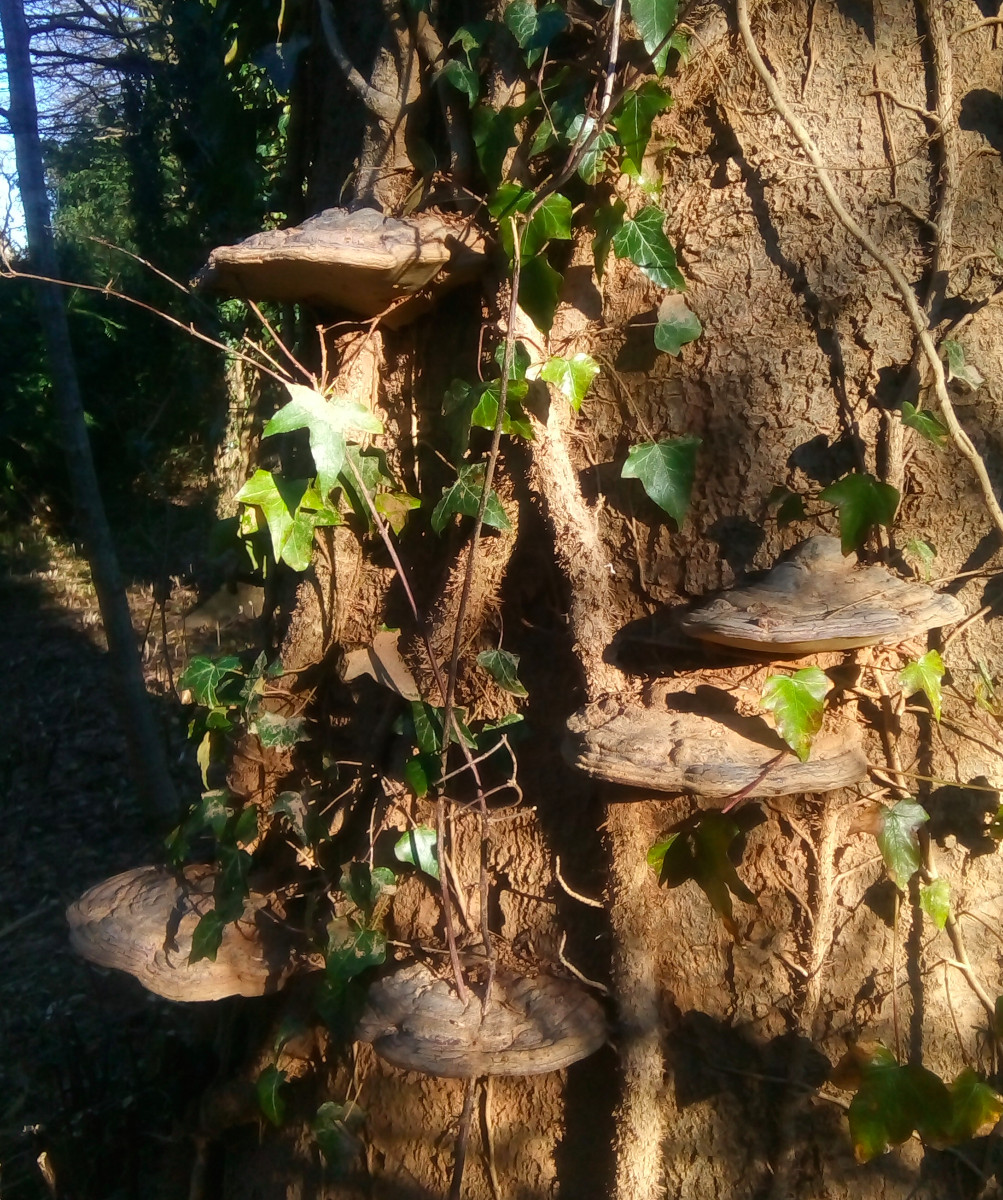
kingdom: Fungi
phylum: Basidiomycota
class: Agaricomycetes
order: Polyporales
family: Polyporaceae
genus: Ganoderma
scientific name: Ganoderma pfeifferi
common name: kobberrød lakporesvamp
